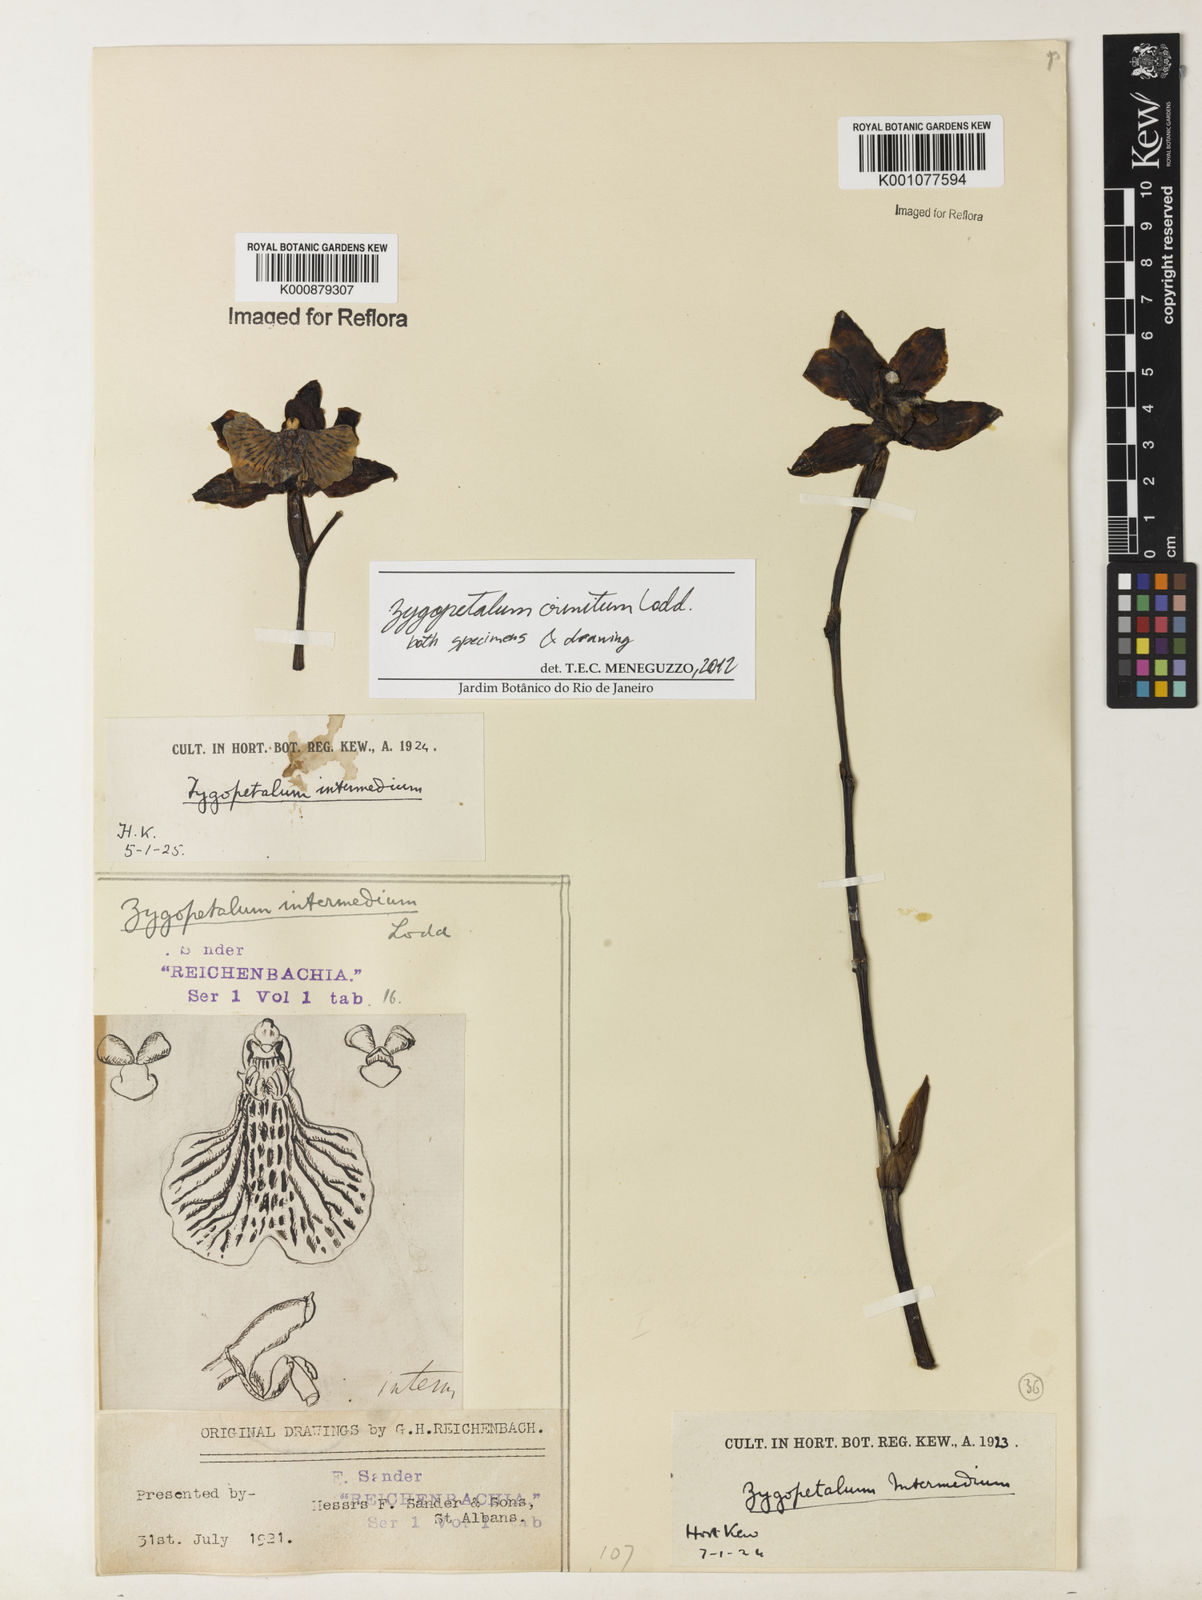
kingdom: Plantae
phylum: Tracheophyta
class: Liliopsida
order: Asparagales
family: Orchidaceae
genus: Zygopetalum
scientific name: Zygopetalum crinitum
